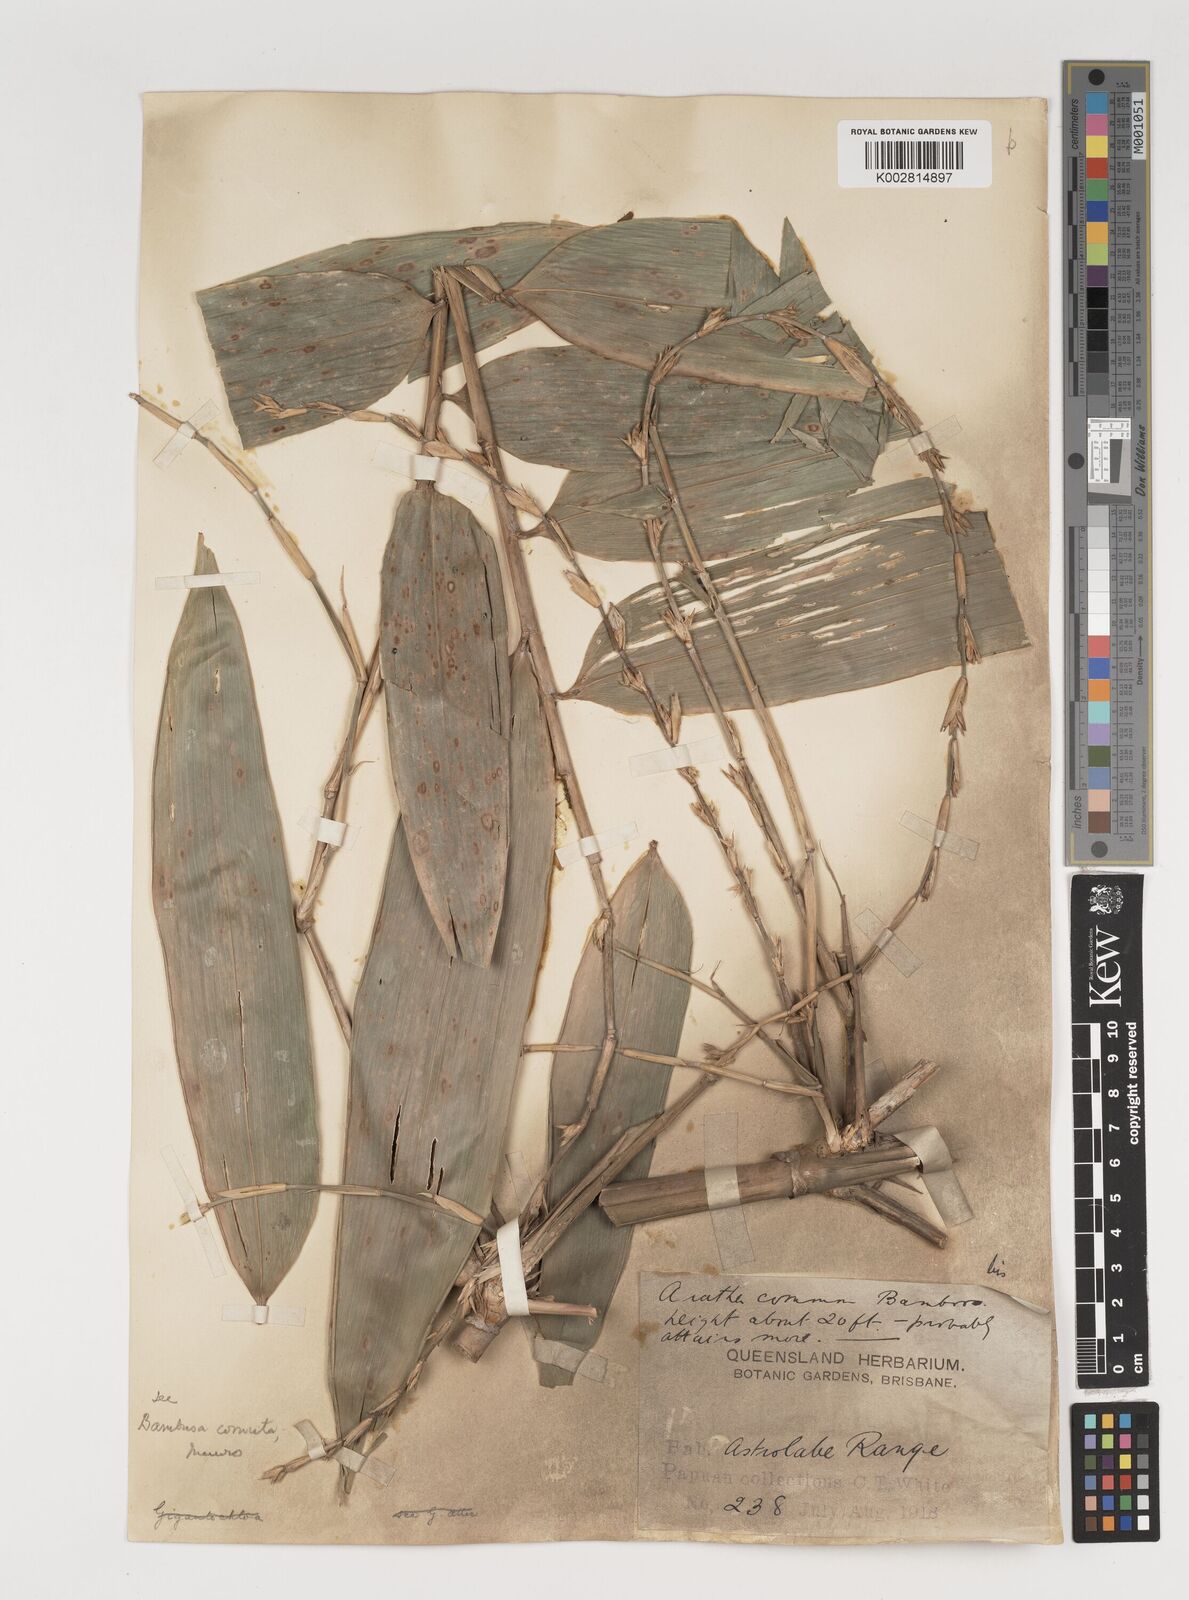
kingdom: Plantae
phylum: Tracheophyta
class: Liliopsida
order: Poales
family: Poaceae
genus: Fimbribambusa
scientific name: Fimbribambusa microcephala
